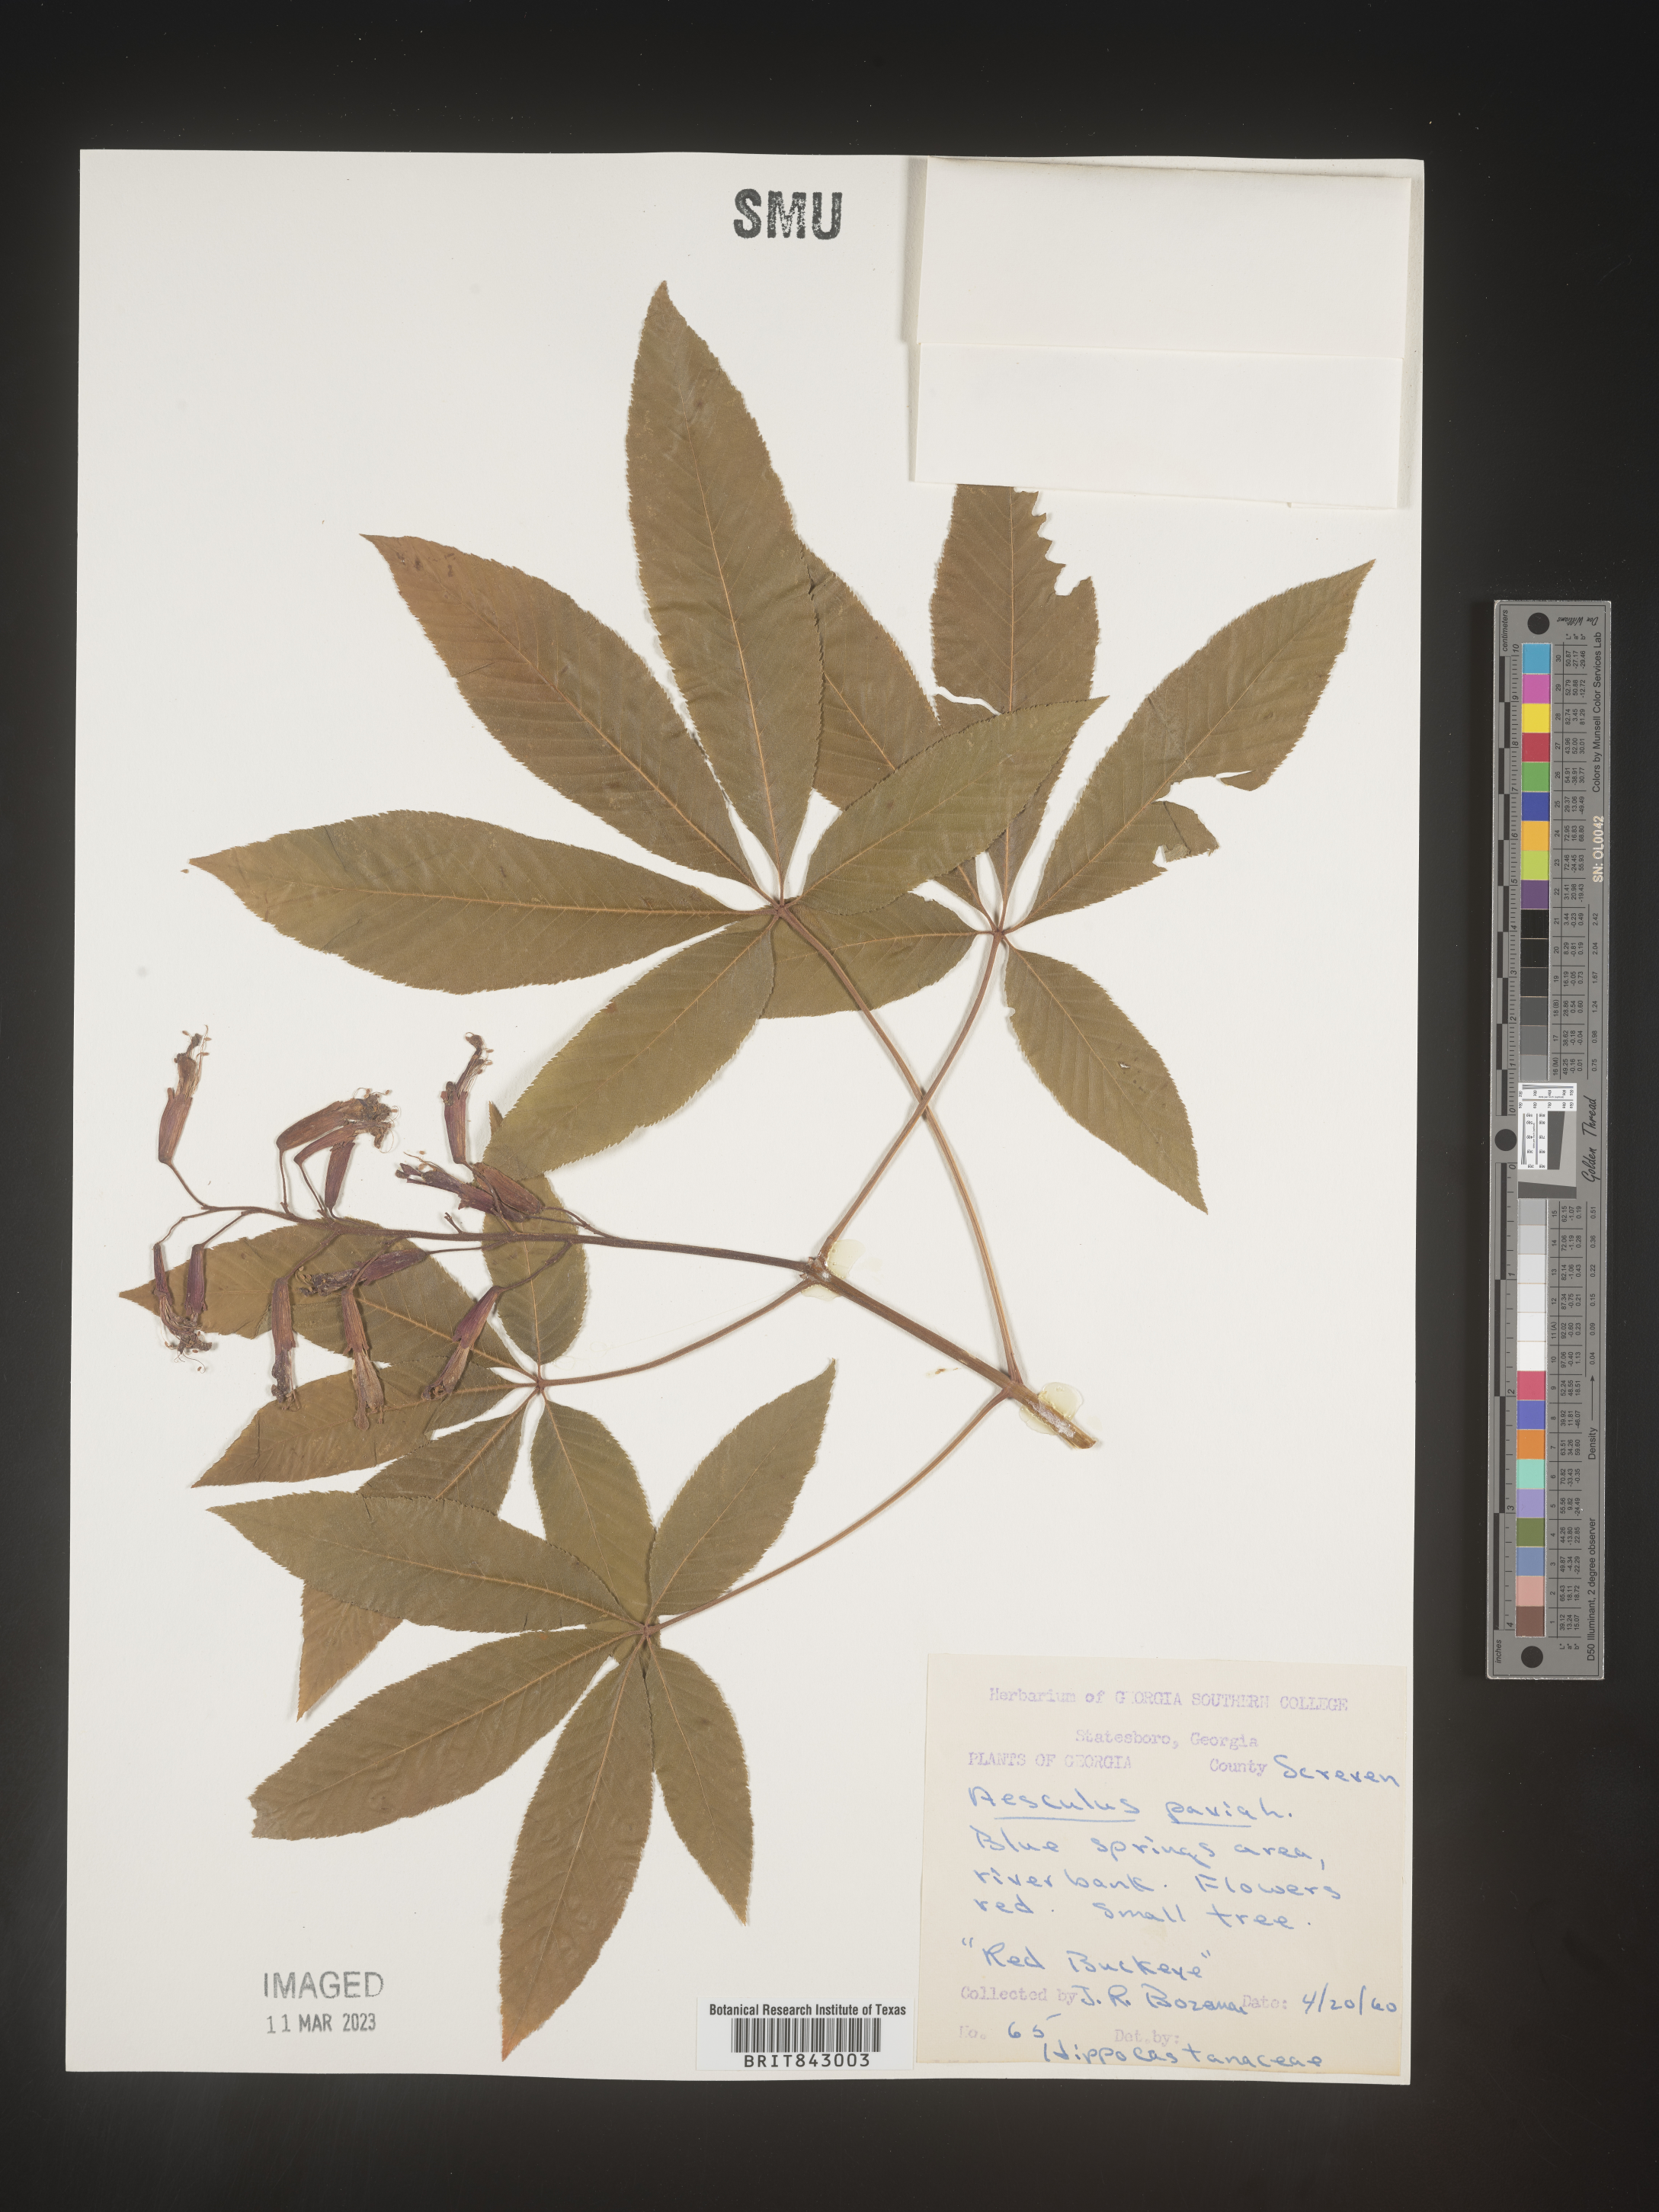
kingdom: Plantae
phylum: Tracheophyta
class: Magnoliopsida
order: Sapindales
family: Sapindaceae
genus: Aesculus
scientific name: Aesculus pavia
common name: Red buckeye
